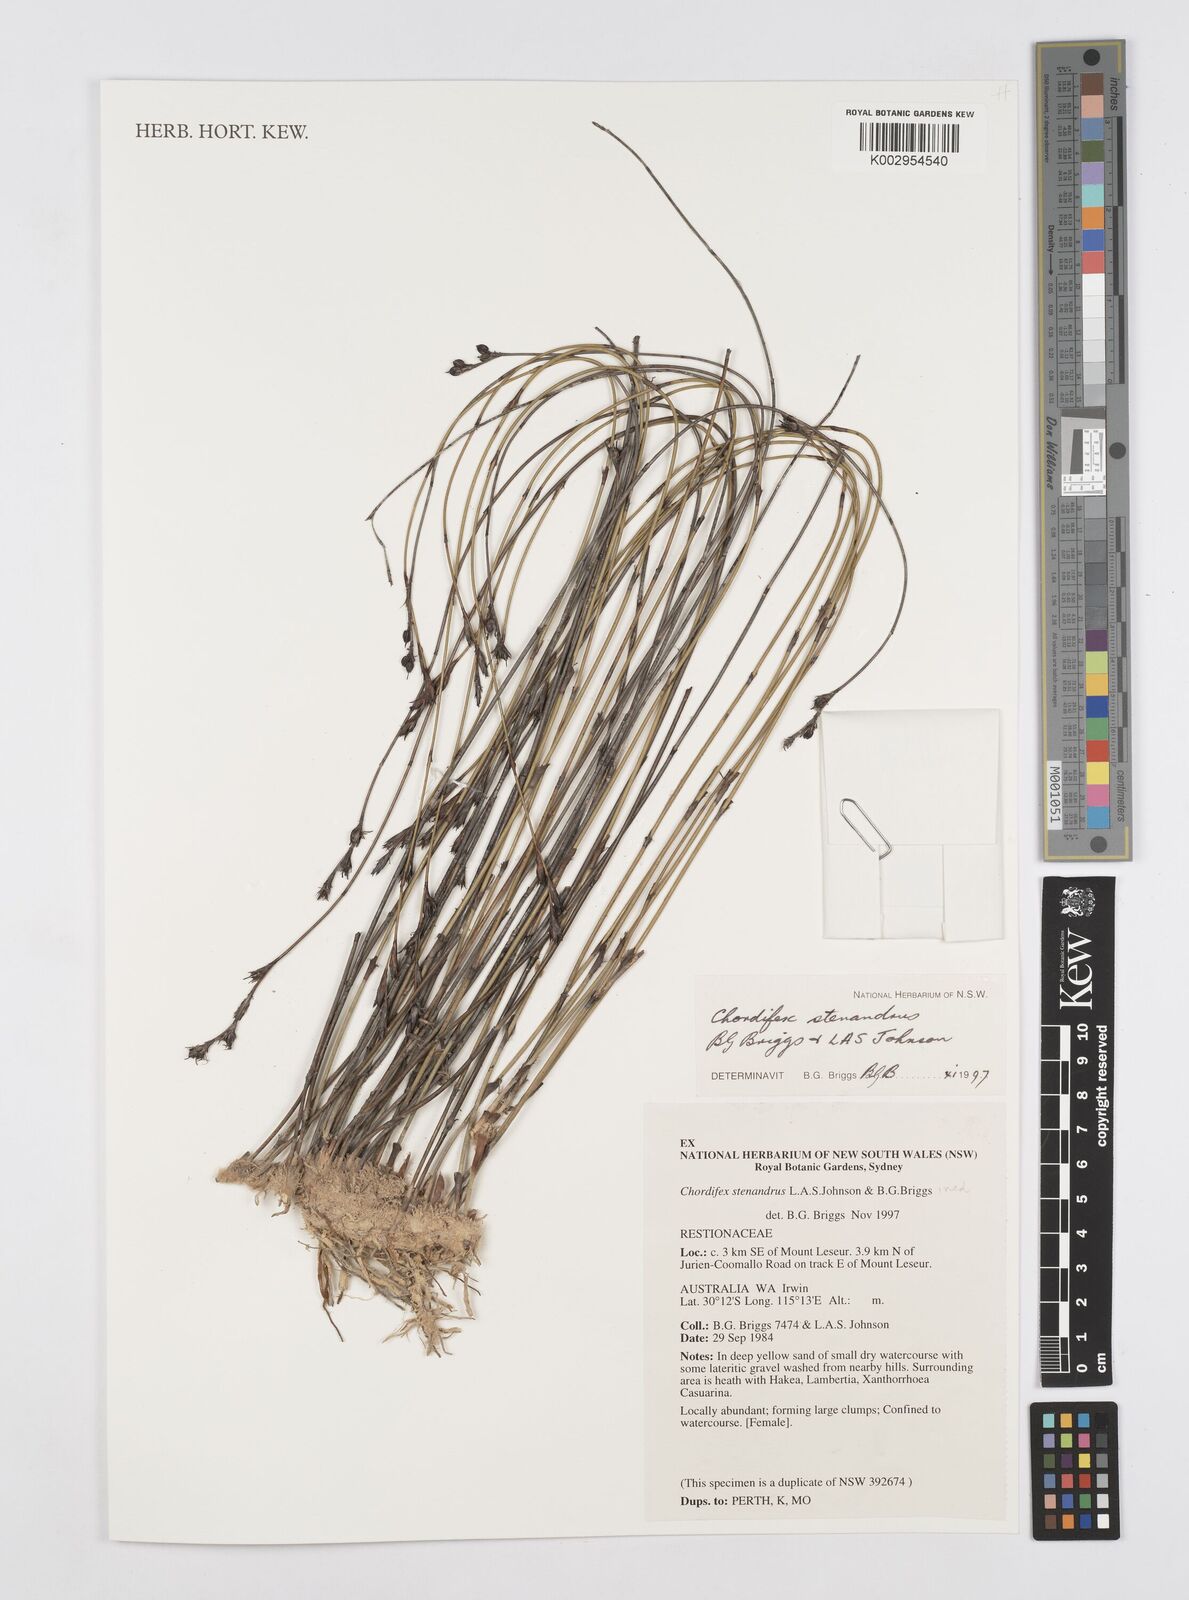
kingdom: Plantae
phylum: Tracheophyta
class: Liliopsida
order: Poales
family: Restionaceae
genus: Chordifex
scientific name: Chordifex stenandrus
